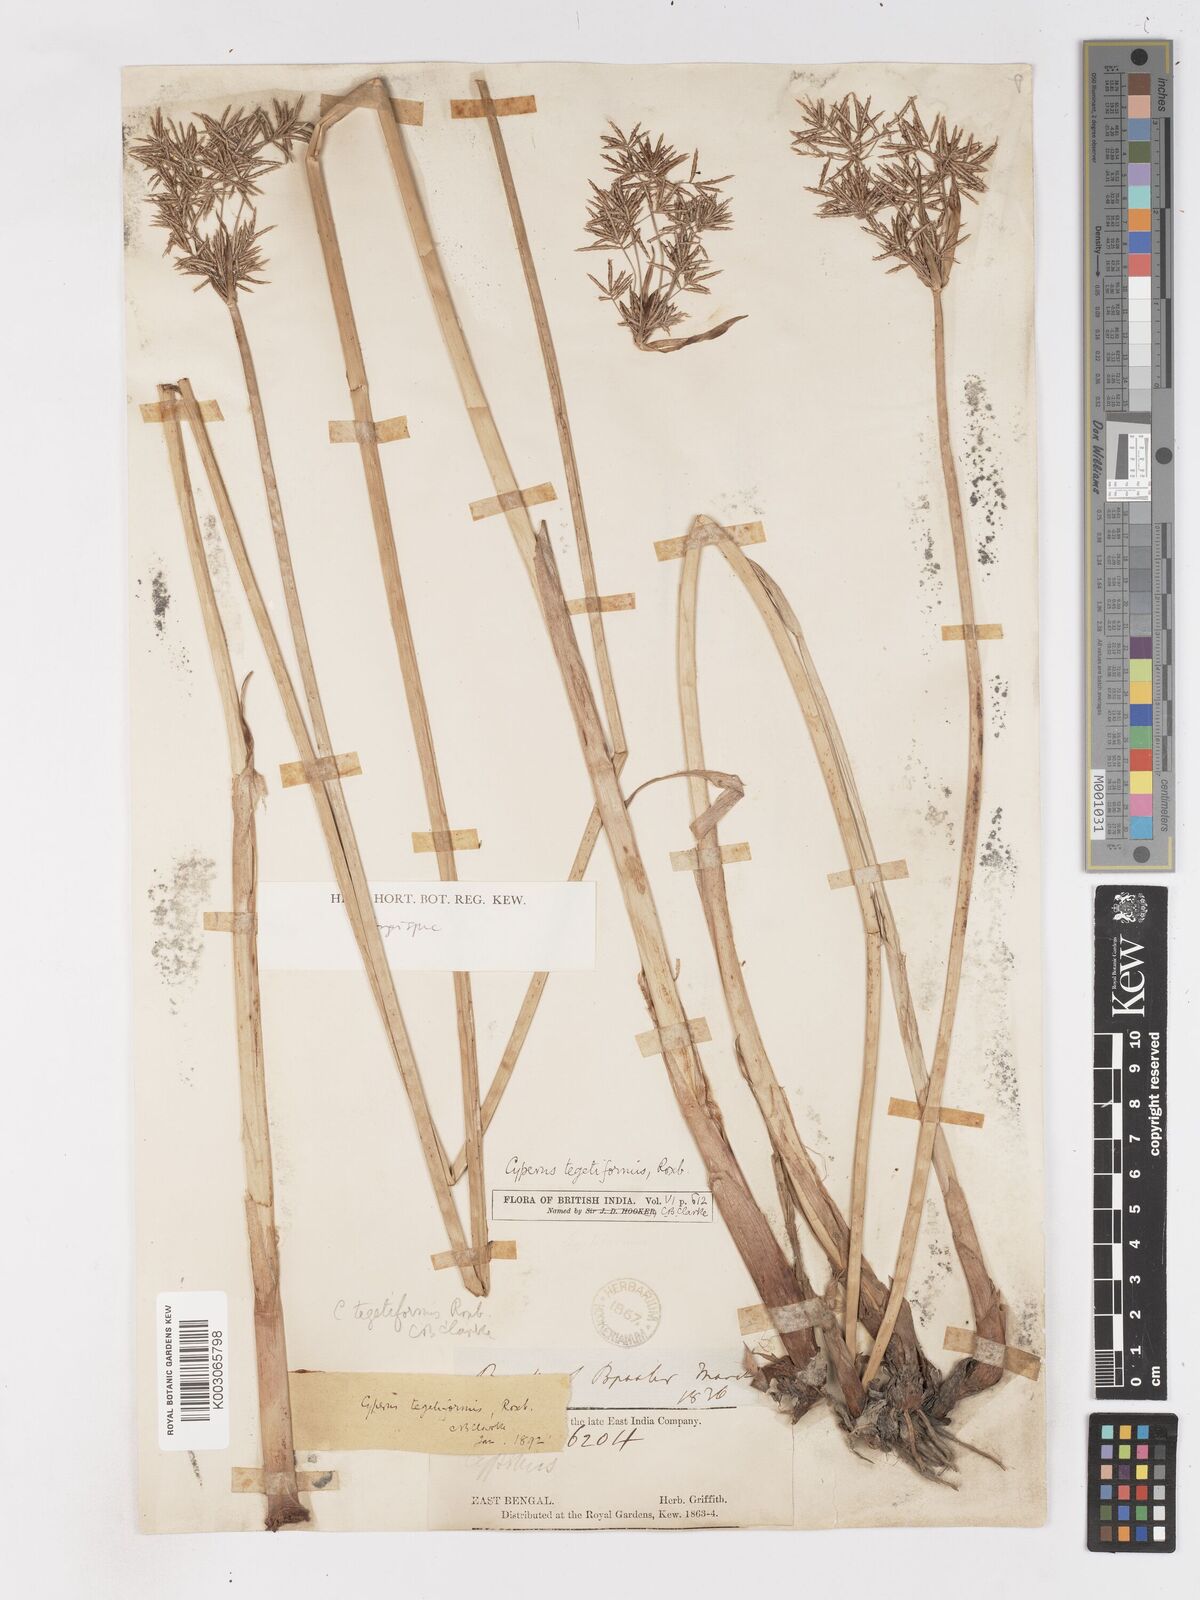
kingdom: Plantae
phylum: Tracheophyta
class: Liliopsida
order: Poales
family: Cyperaceae
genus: Cyperus
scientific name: Cyperus corymbosus
